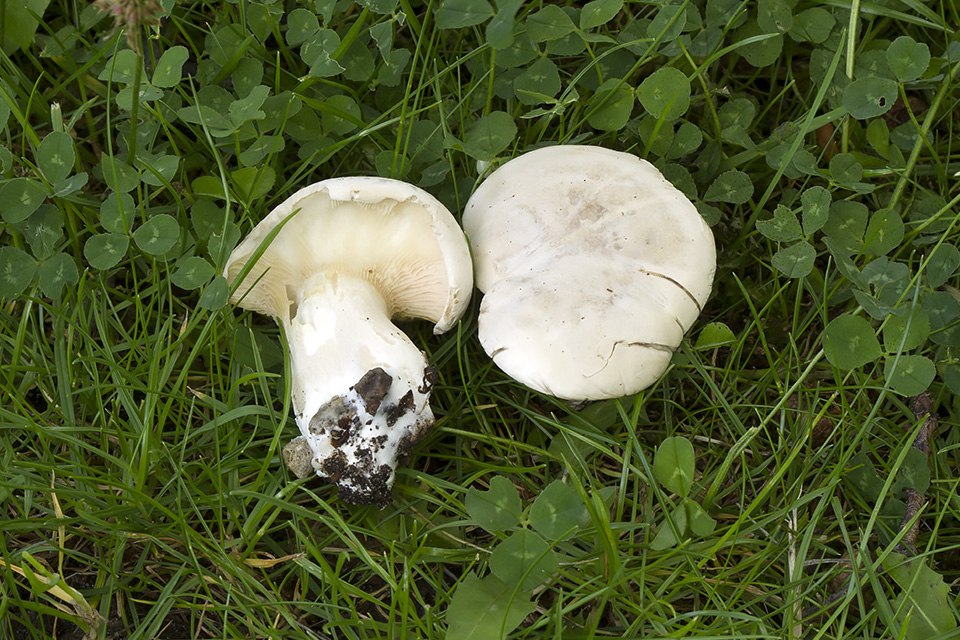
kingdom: Fungi
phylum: Basidiomycota
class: Agaricomycetes
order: Agaricales
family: Entolomataceae
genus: Clitopilus
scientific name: Clitopilus prunulus
